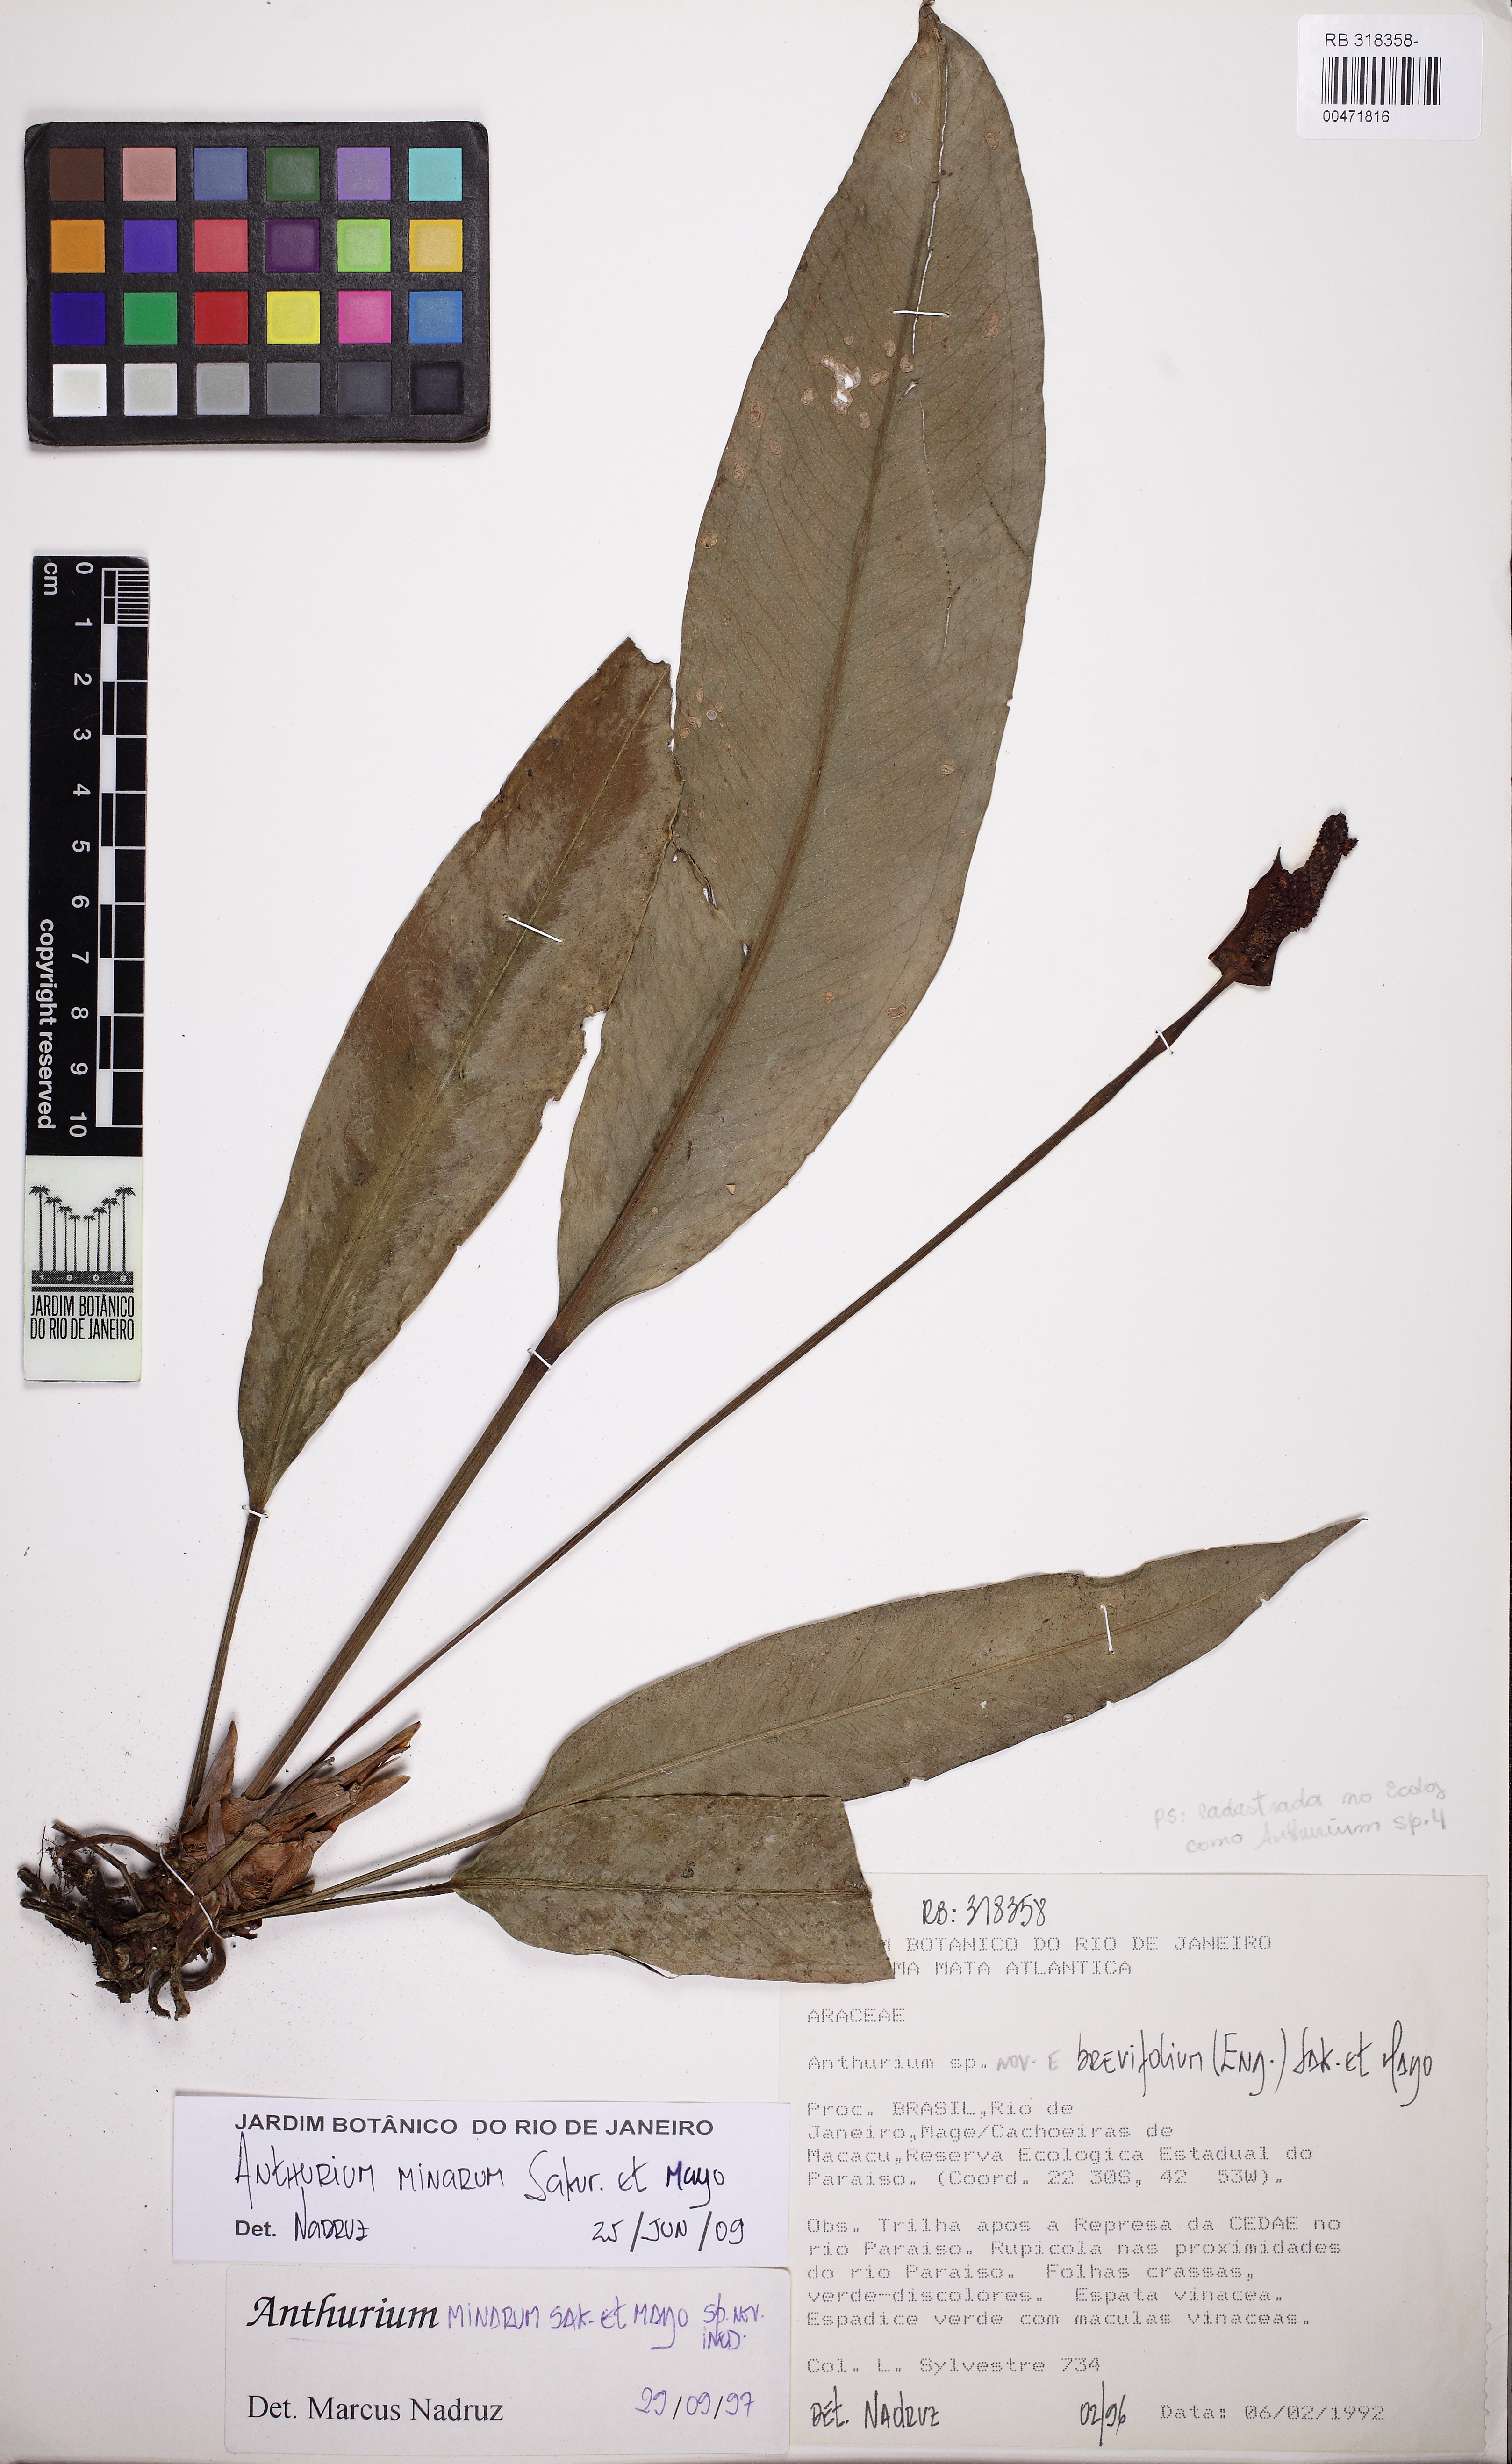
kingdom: Plantae
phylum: Tracheophyta
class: Liliopsida
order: Alismatales
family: Araceae
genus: Anthurium
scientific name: Anthurium minarum
